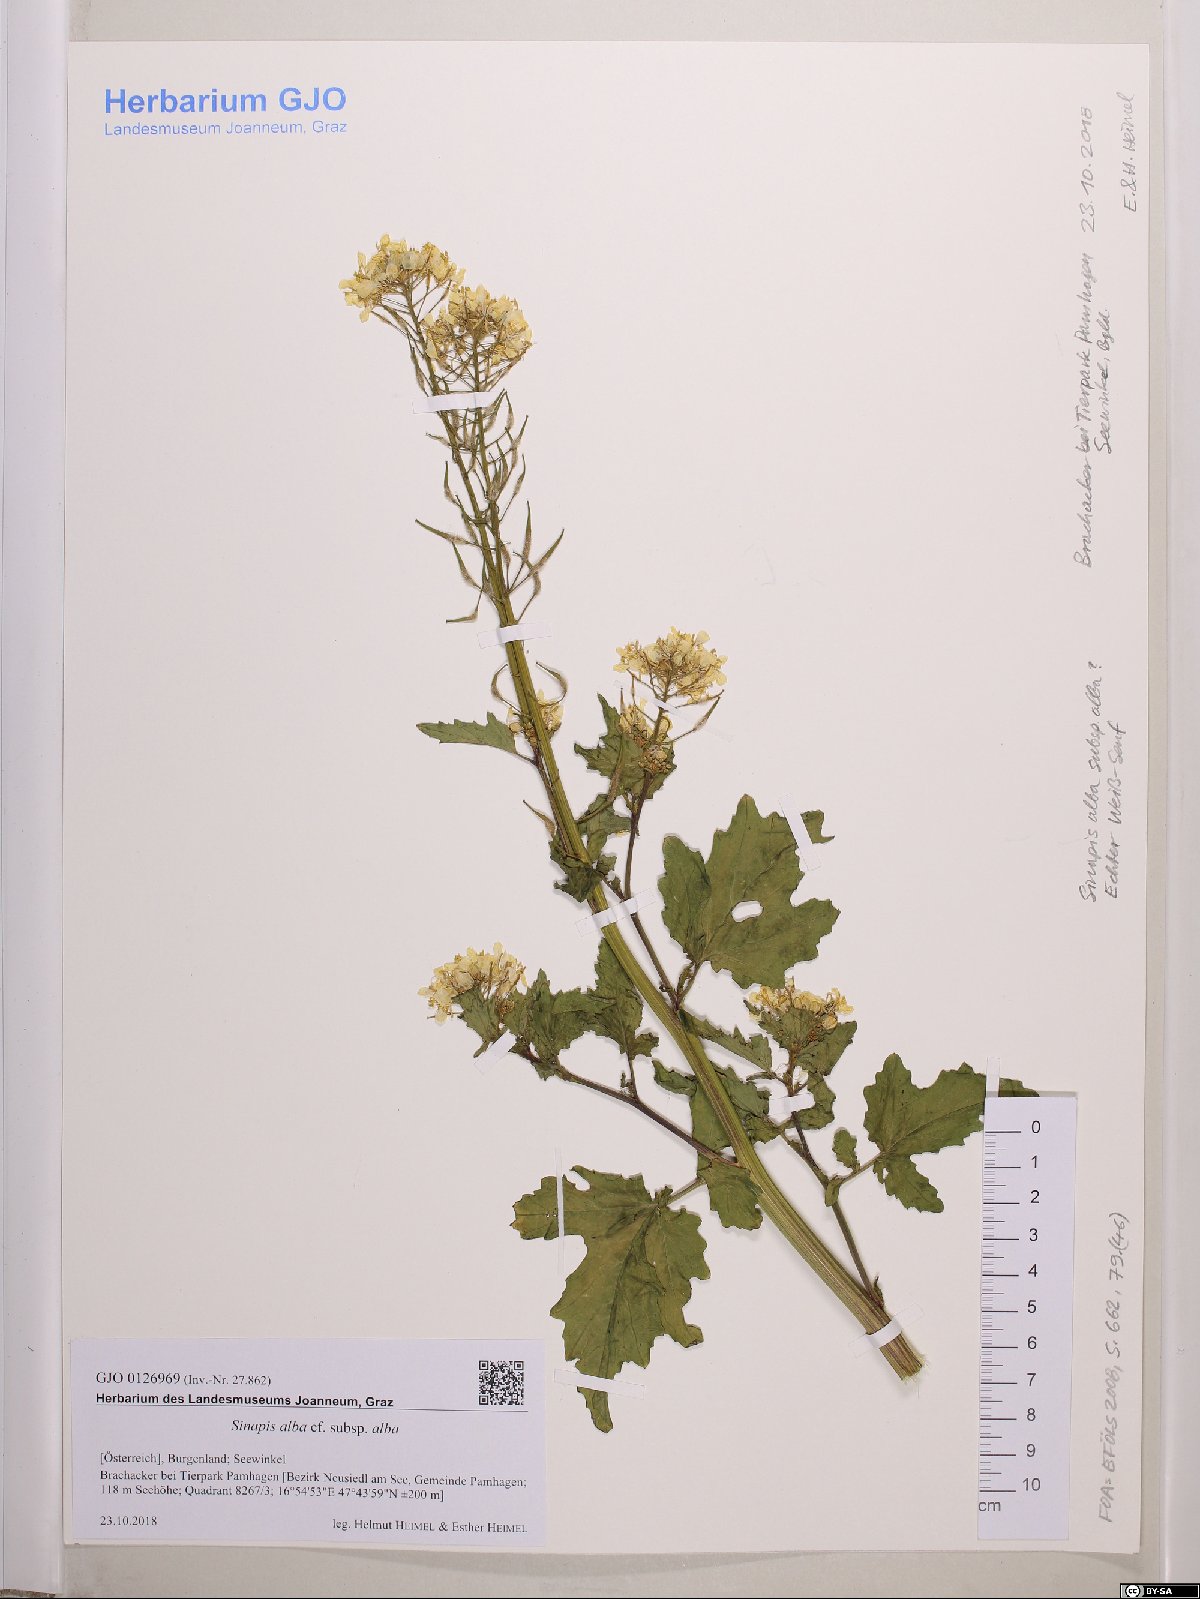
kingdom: Plantae
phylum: Tracheophyta
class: Magnoliopsida
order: Brassicales
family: Brassicaceae
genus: Sinapis
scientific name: Sinapis alba
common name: White mustard
